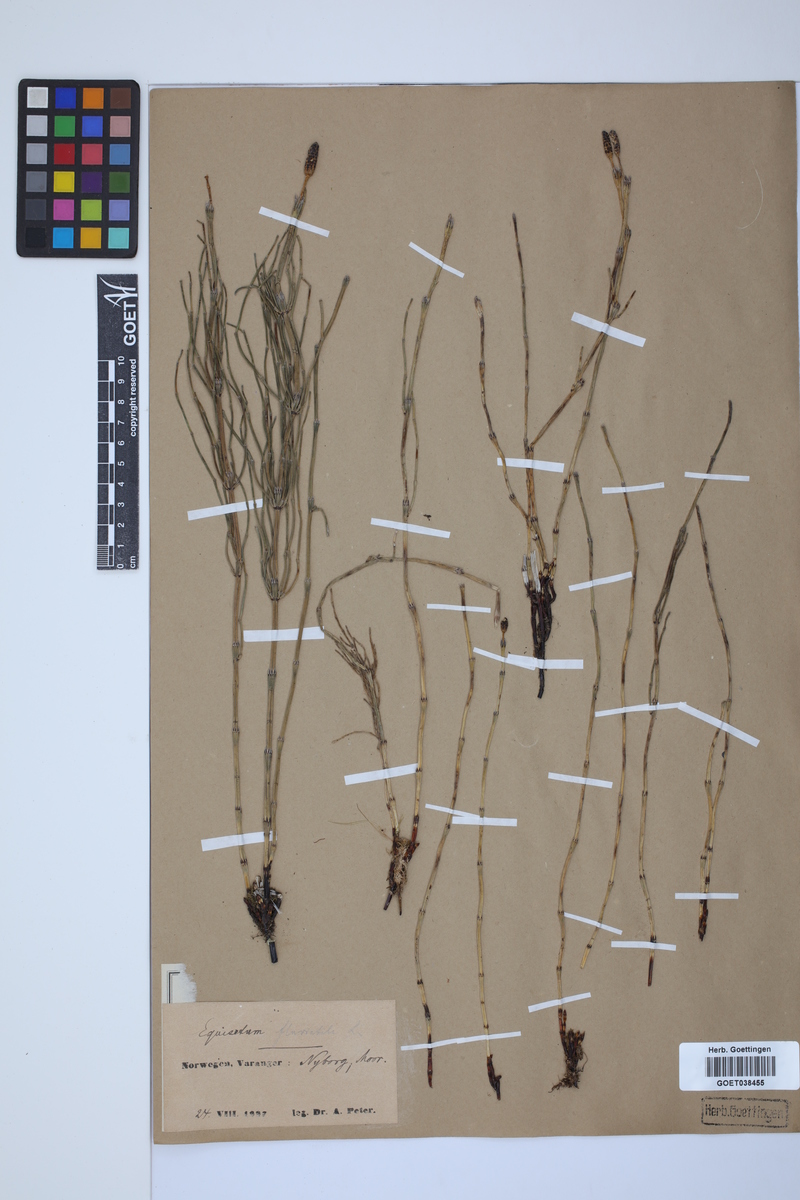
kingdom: Plantae
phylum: Tracheophyta
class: Polypodiopsida
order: Equisetales
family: Equisetaceae
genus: Equisetum
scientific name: Equisetum fluviatile
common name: Water horsetail
